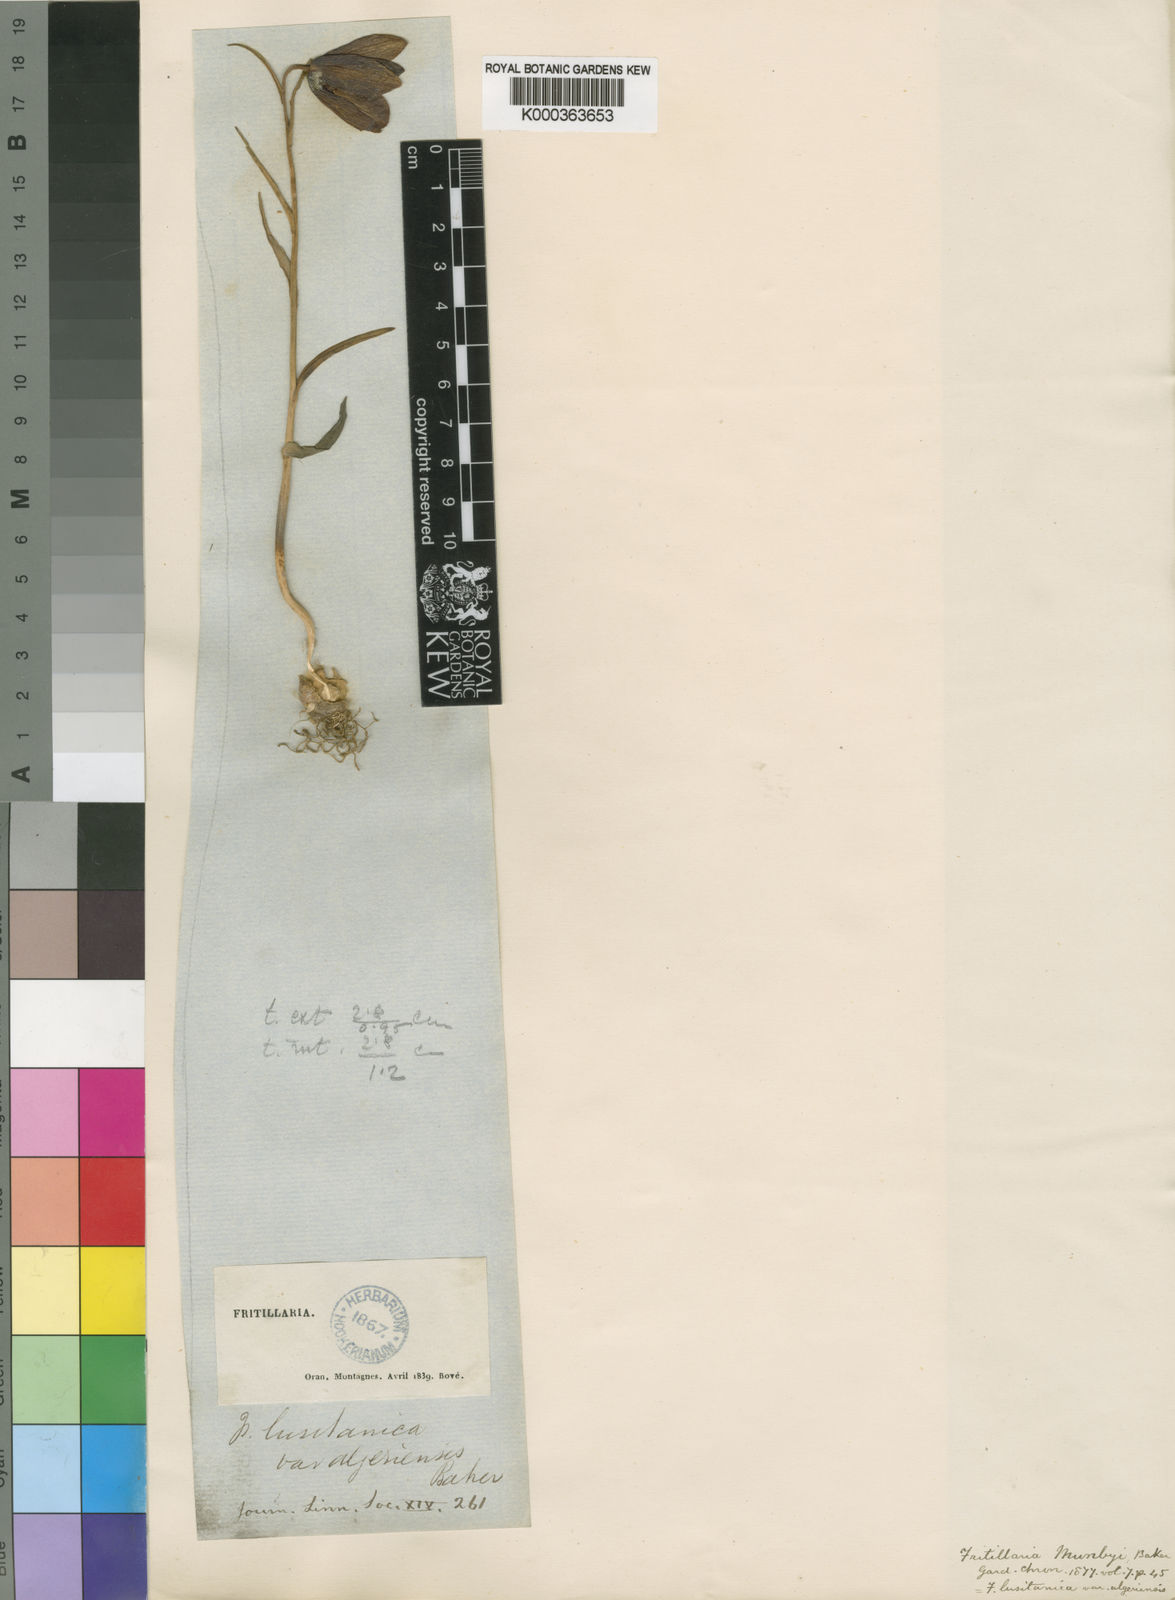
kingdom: Plantae
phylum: Tracheophyta
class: Liliopsida
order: Liliales
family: Liliaceae
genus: Fritillaria
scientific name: Fritillaria oranensis
